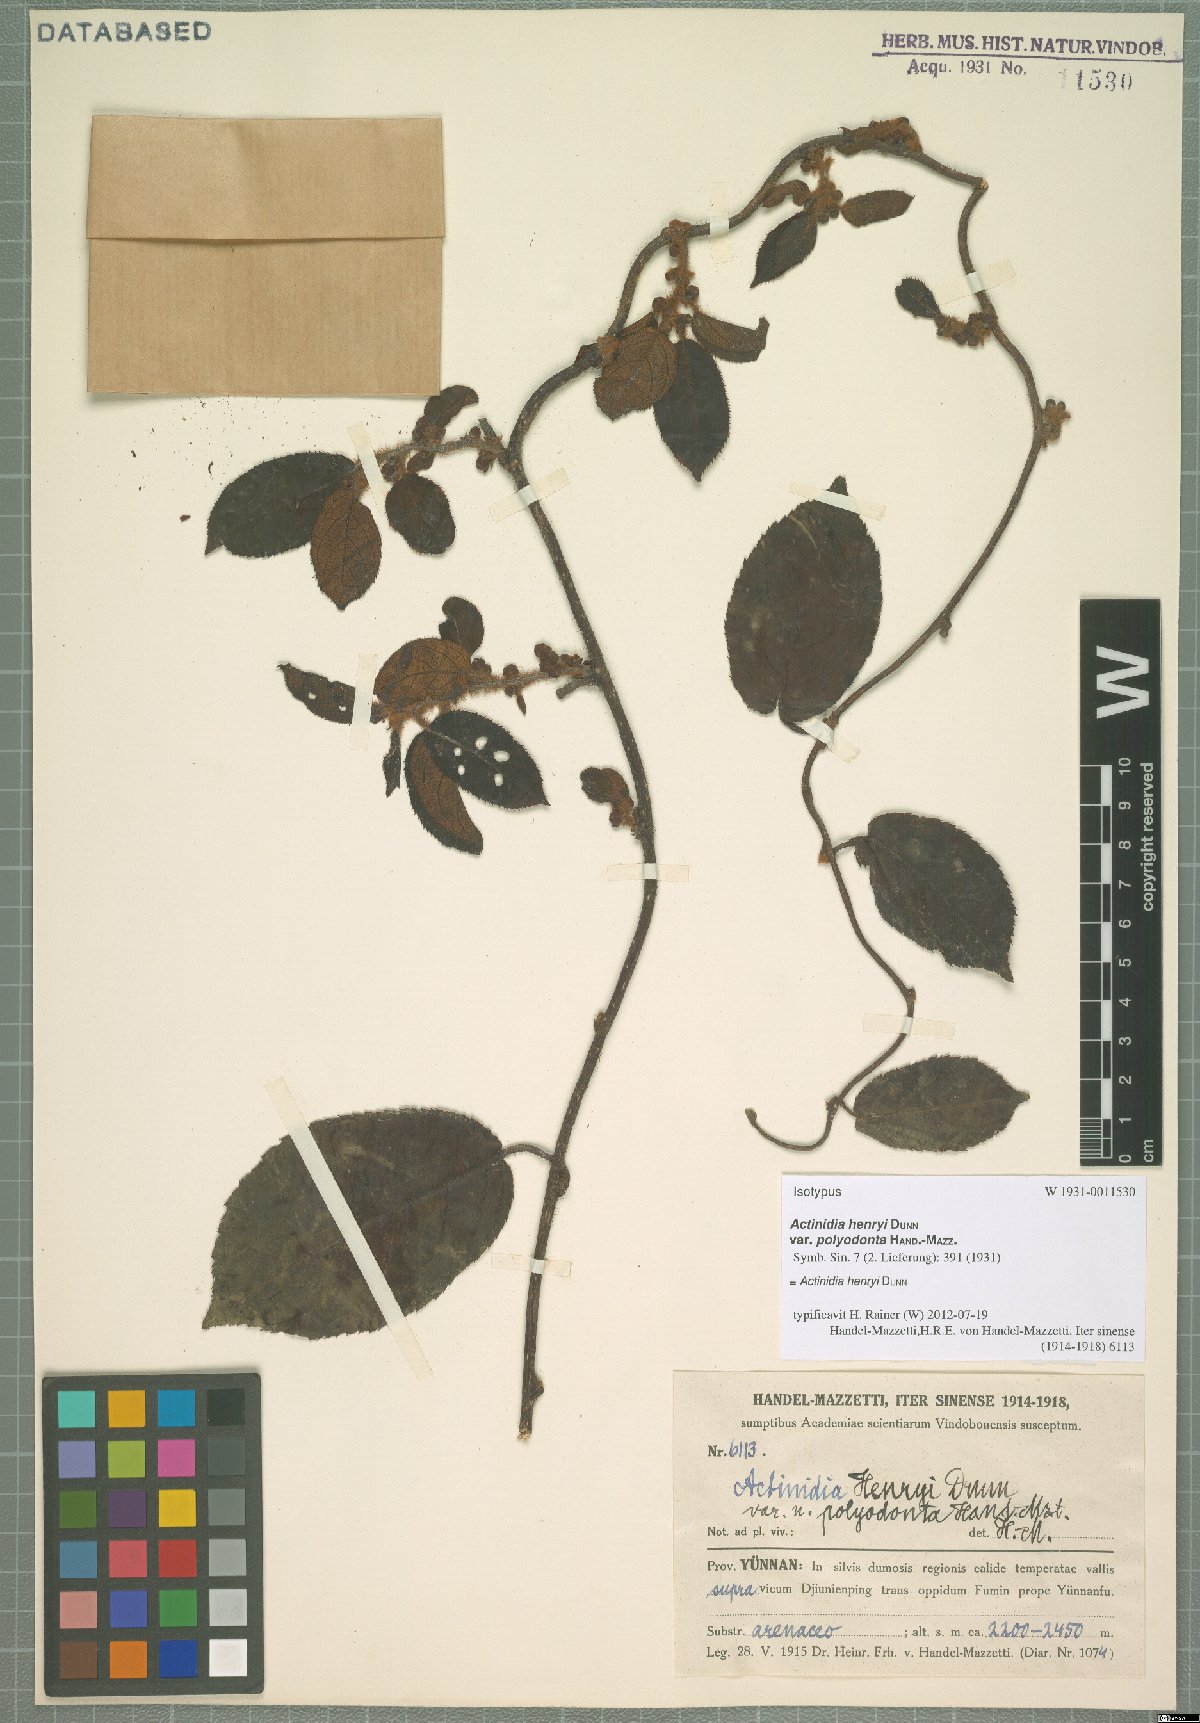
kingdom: Plantae
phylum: Tracheophyta
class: Magnoliopsida
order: Ericales
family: Actinidiaceae
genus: Actinidia
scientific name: Actinidia henryi
